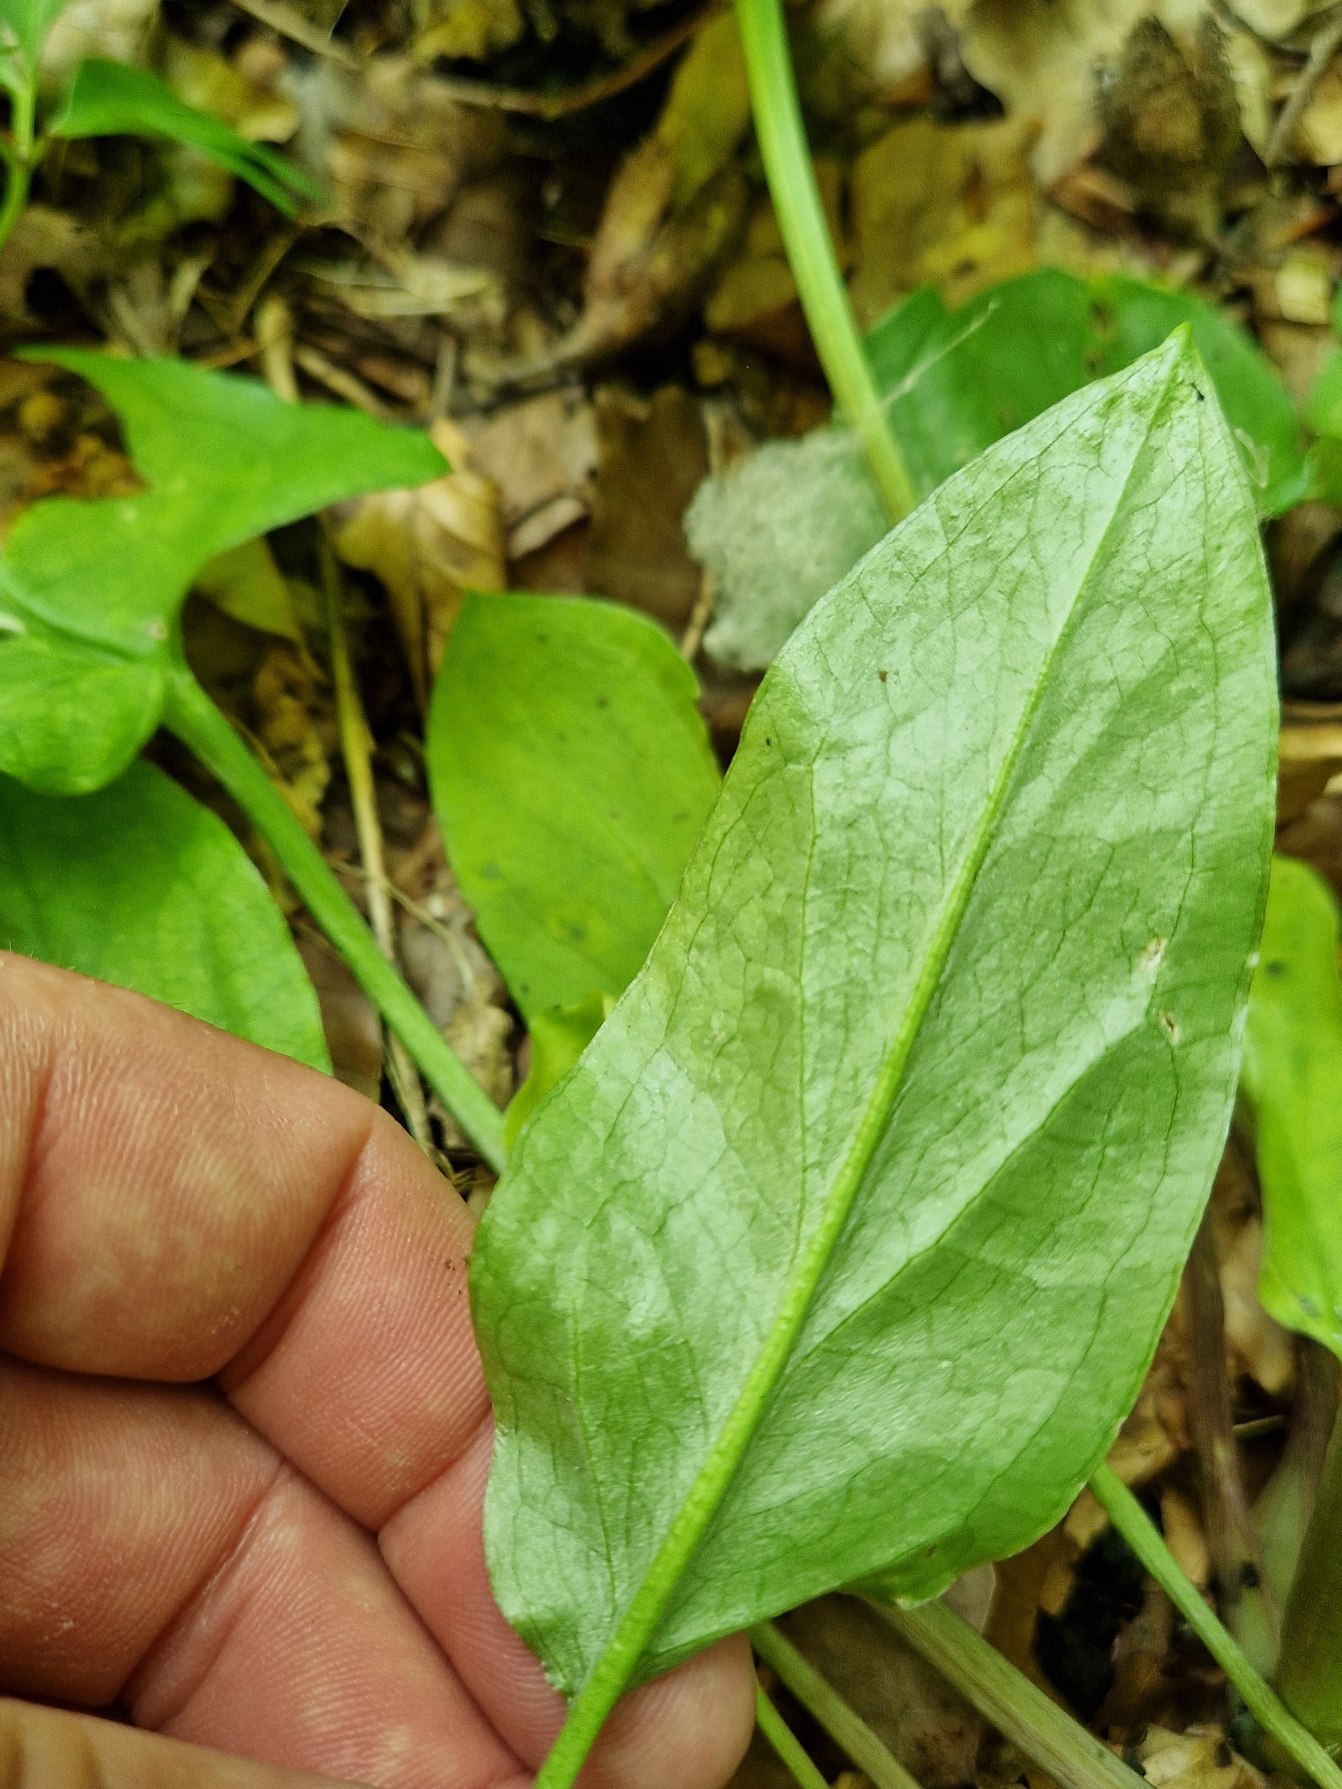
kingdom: Plantae
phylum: Tracheophyta
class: Liliopsida
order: Alismatales
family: Araceae
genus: Arum
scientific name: Arum maculatum
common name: Plettet arum
